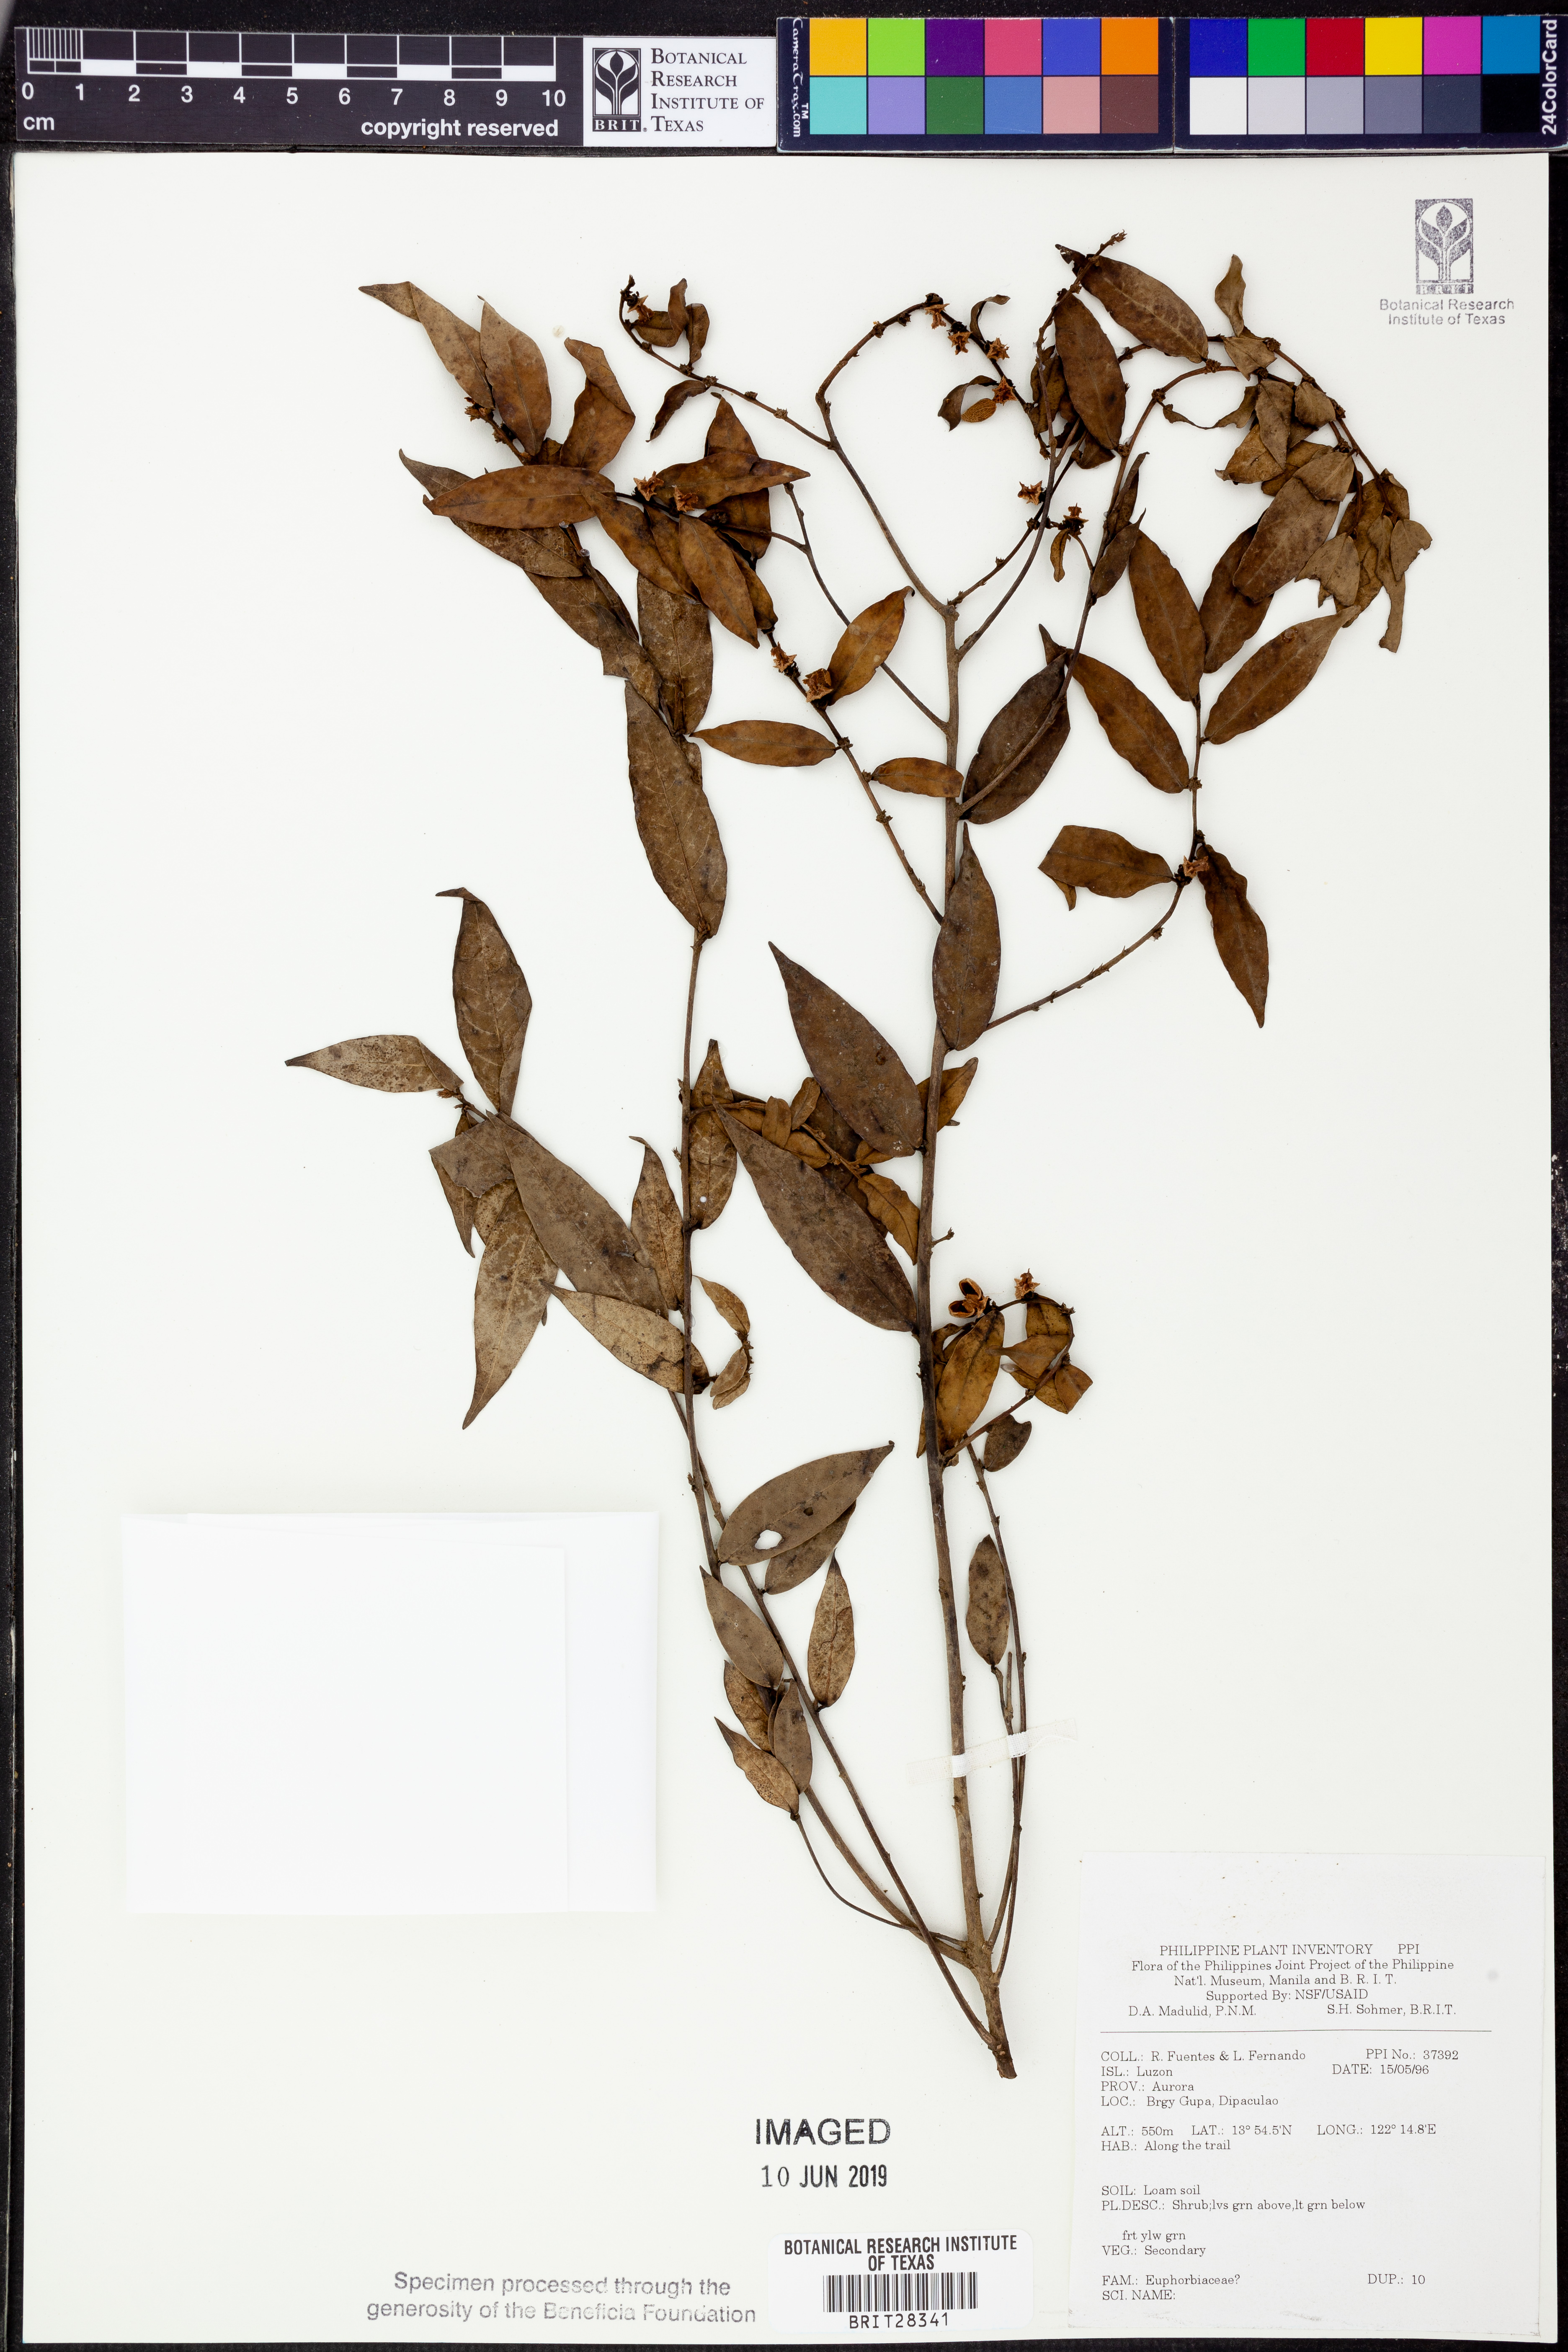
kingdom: Plantae
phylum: Tracheophyta
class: Magnoliopsida
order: Malpighiales
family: Euphorbiaceae
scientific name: Euphorbiaceae
